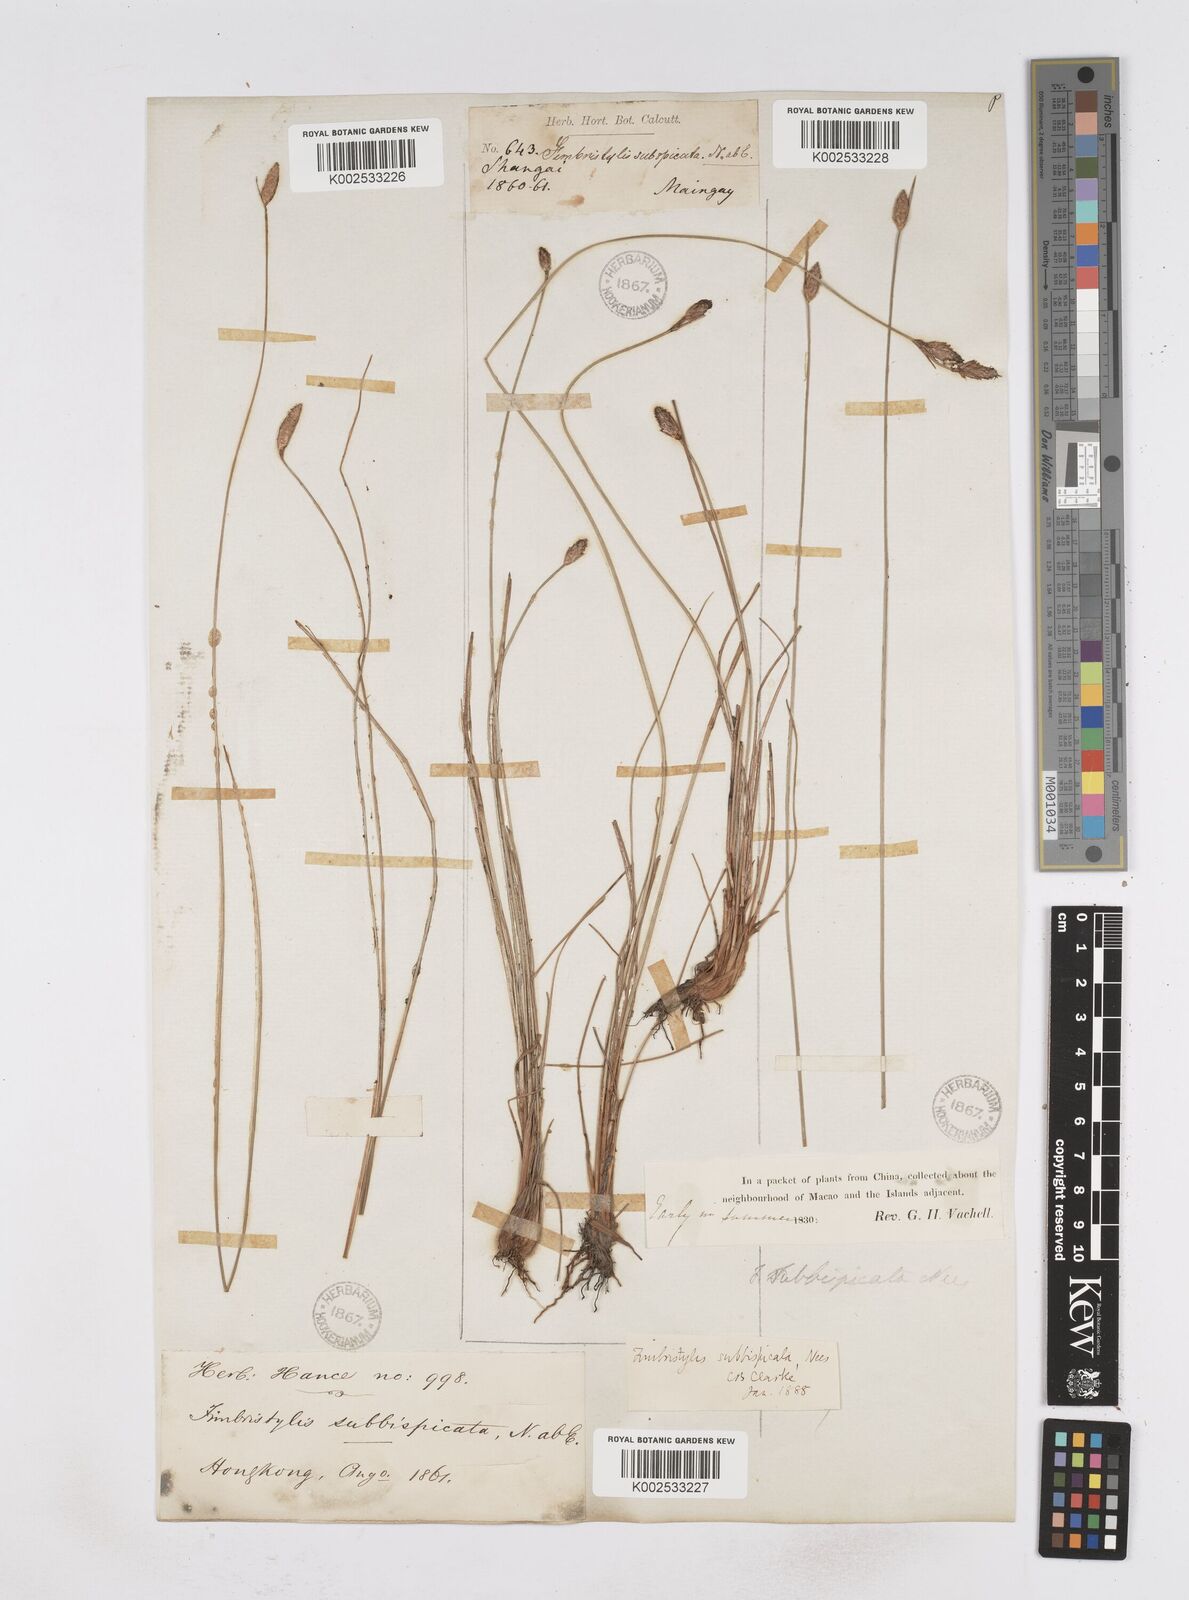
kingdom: Plantae
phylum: Tracheophyta
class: Liliopsida
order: Poales
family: Cyperaceae
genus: Fimbristylis
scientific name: Fimbristylis tristachya
